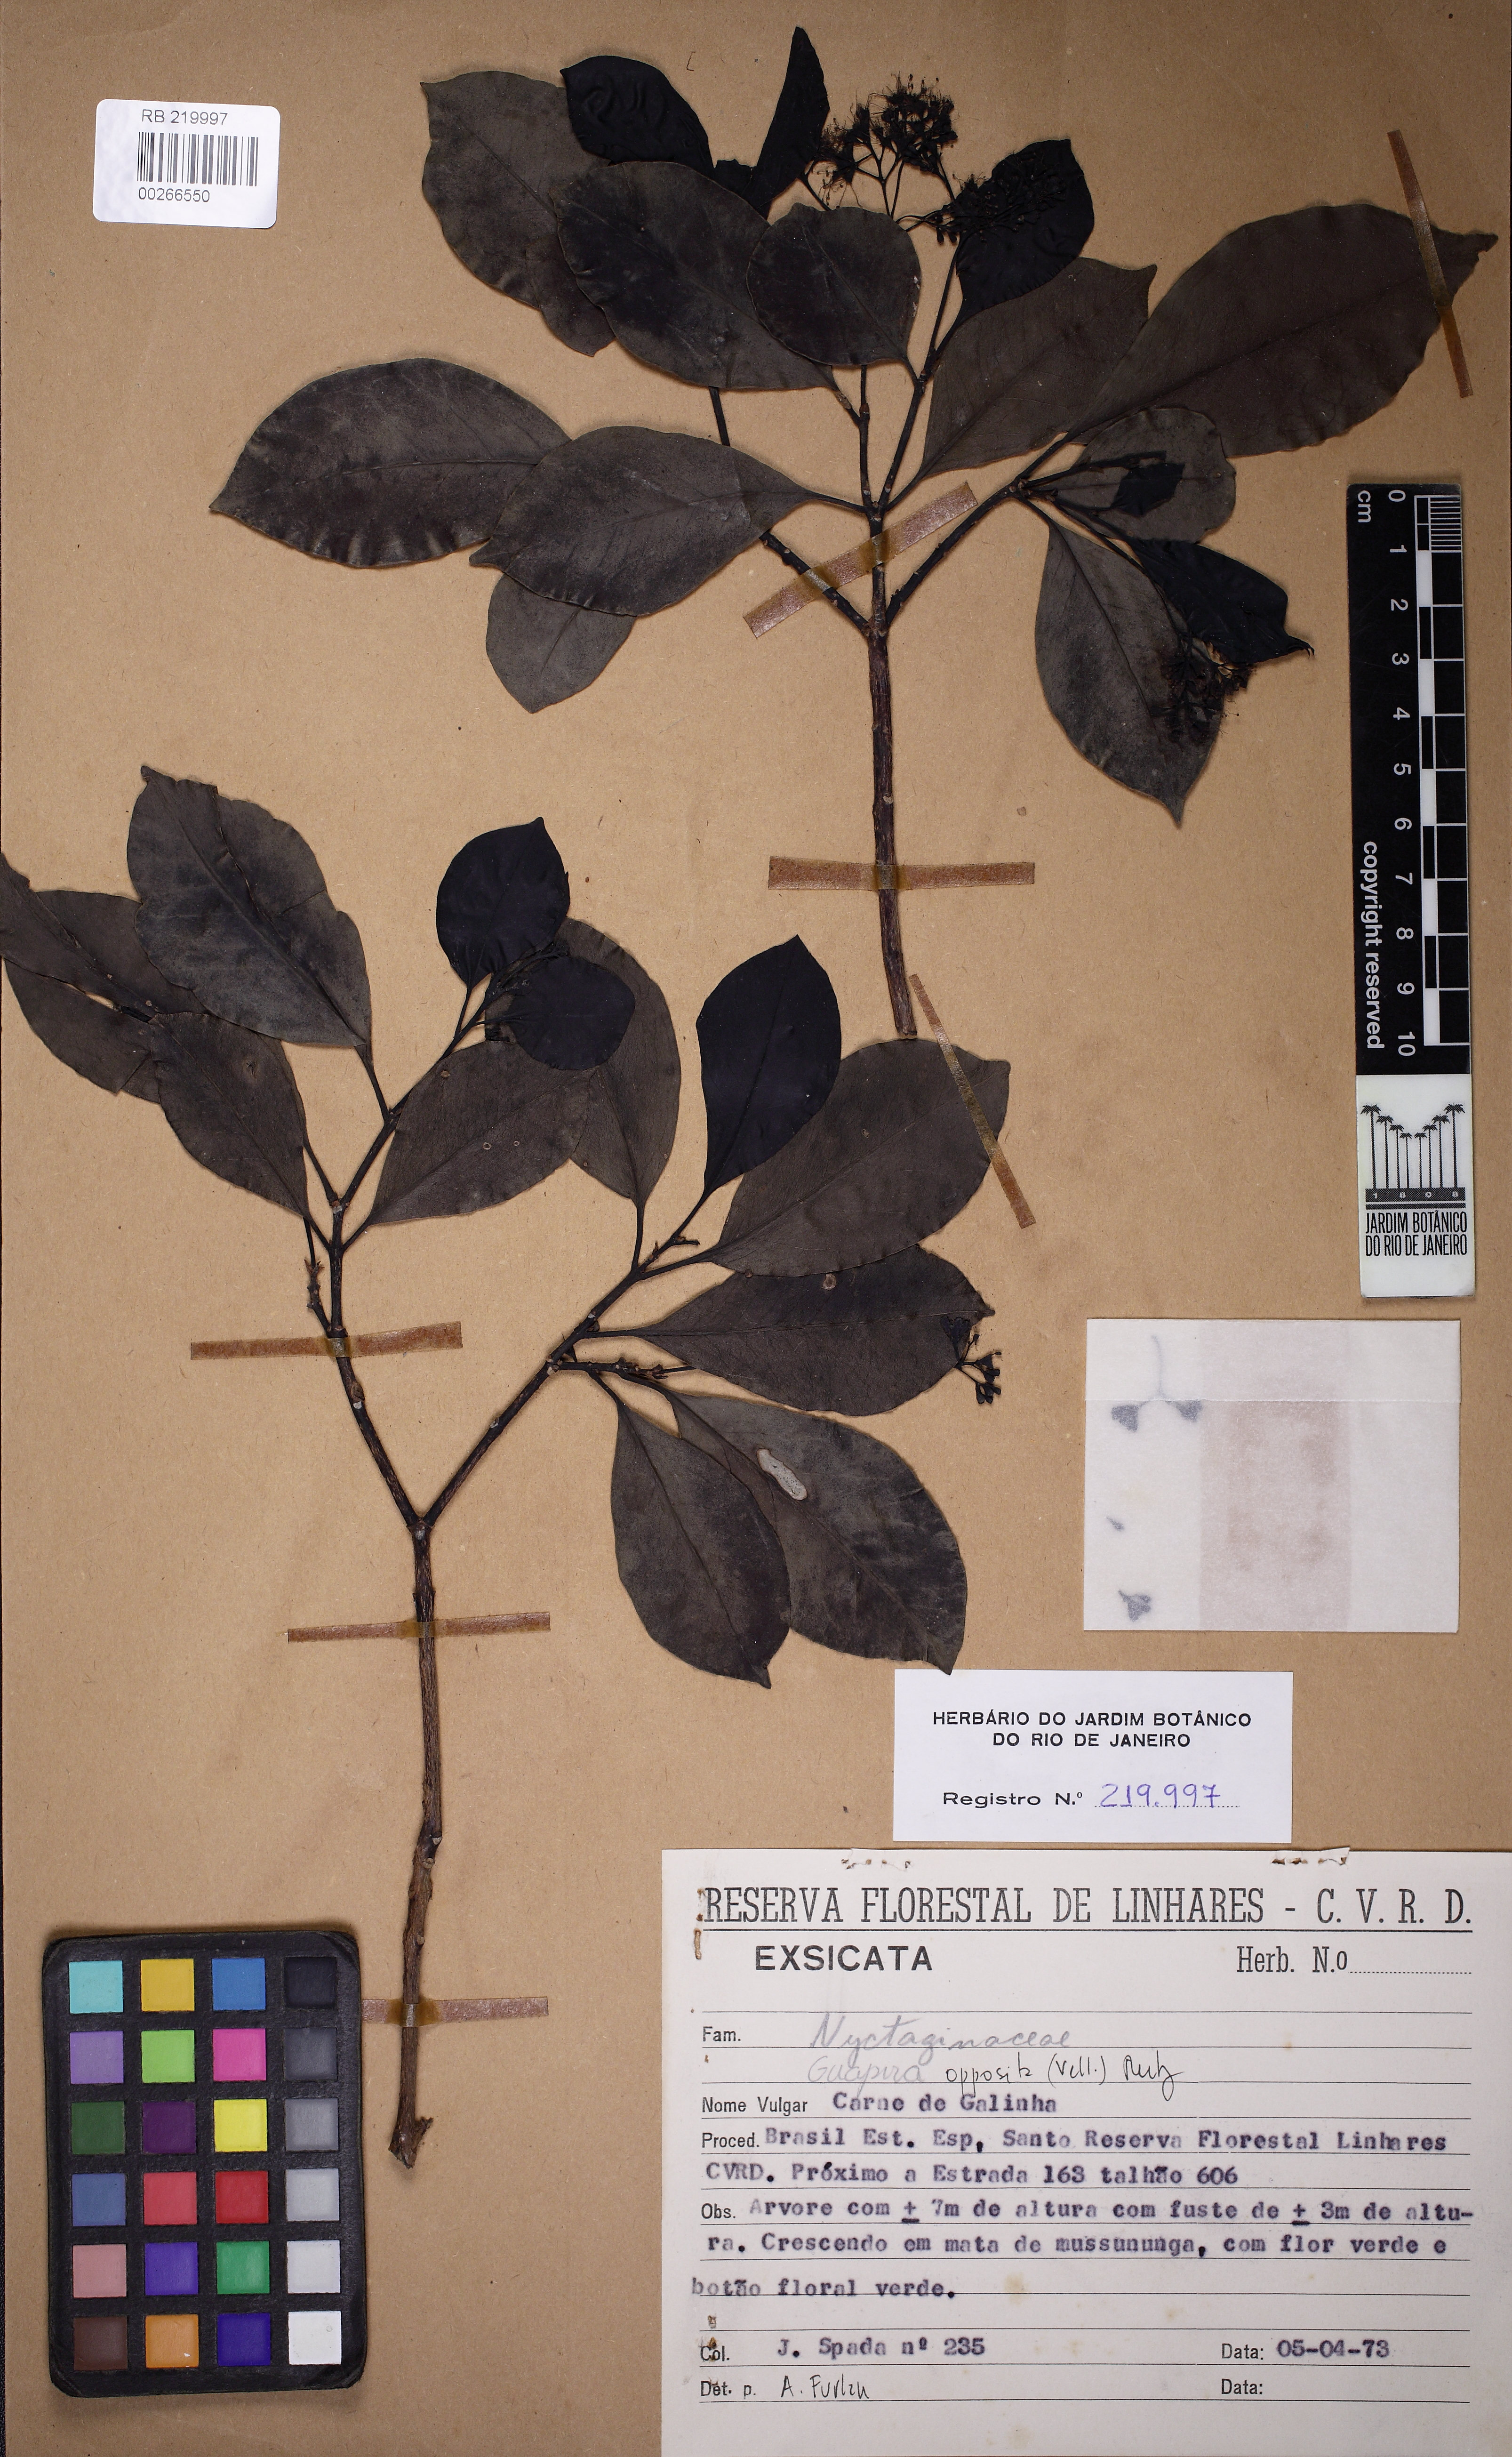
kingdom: Plantae
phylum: Tracheophyta
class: Magnoliopsida
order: Caryophyllales
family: Nyctaginaceae
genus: Guapira
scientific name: Guapira opposita
